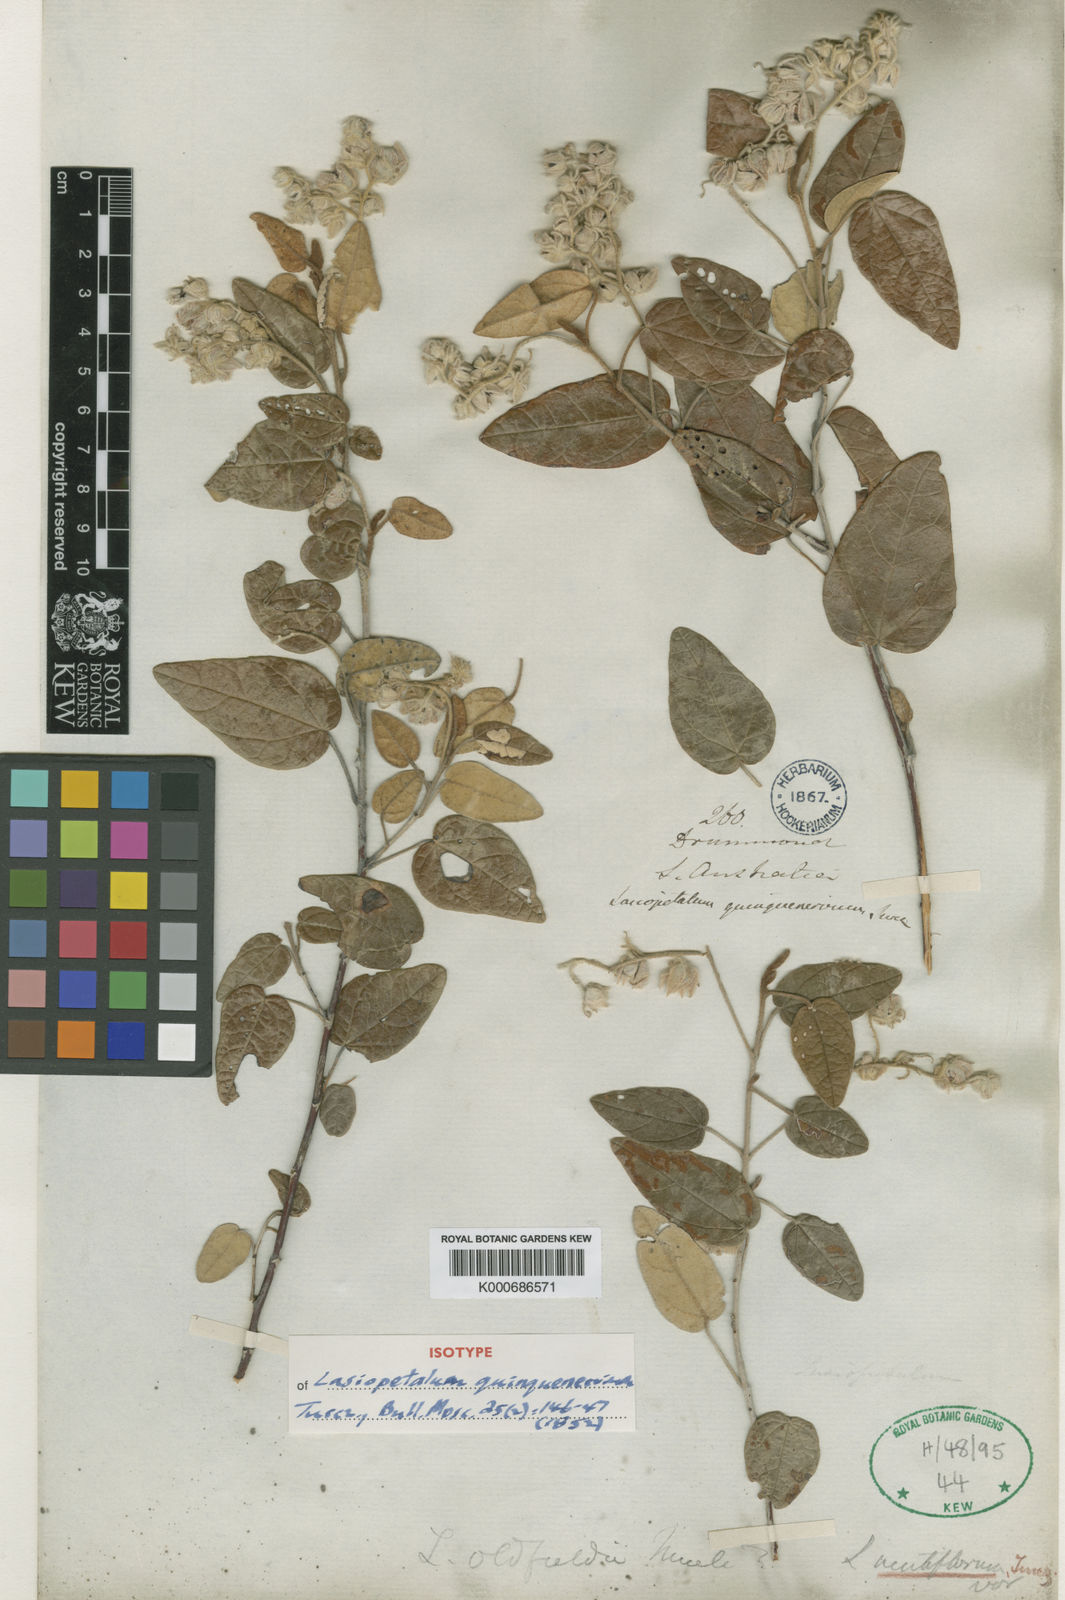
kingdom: Plantae
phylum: Tracheophyta
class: Magnoliopsida
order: Malvales
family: Malvaceae
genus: Lasiopetalum
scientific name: Lasiopetalum quinquenervium
